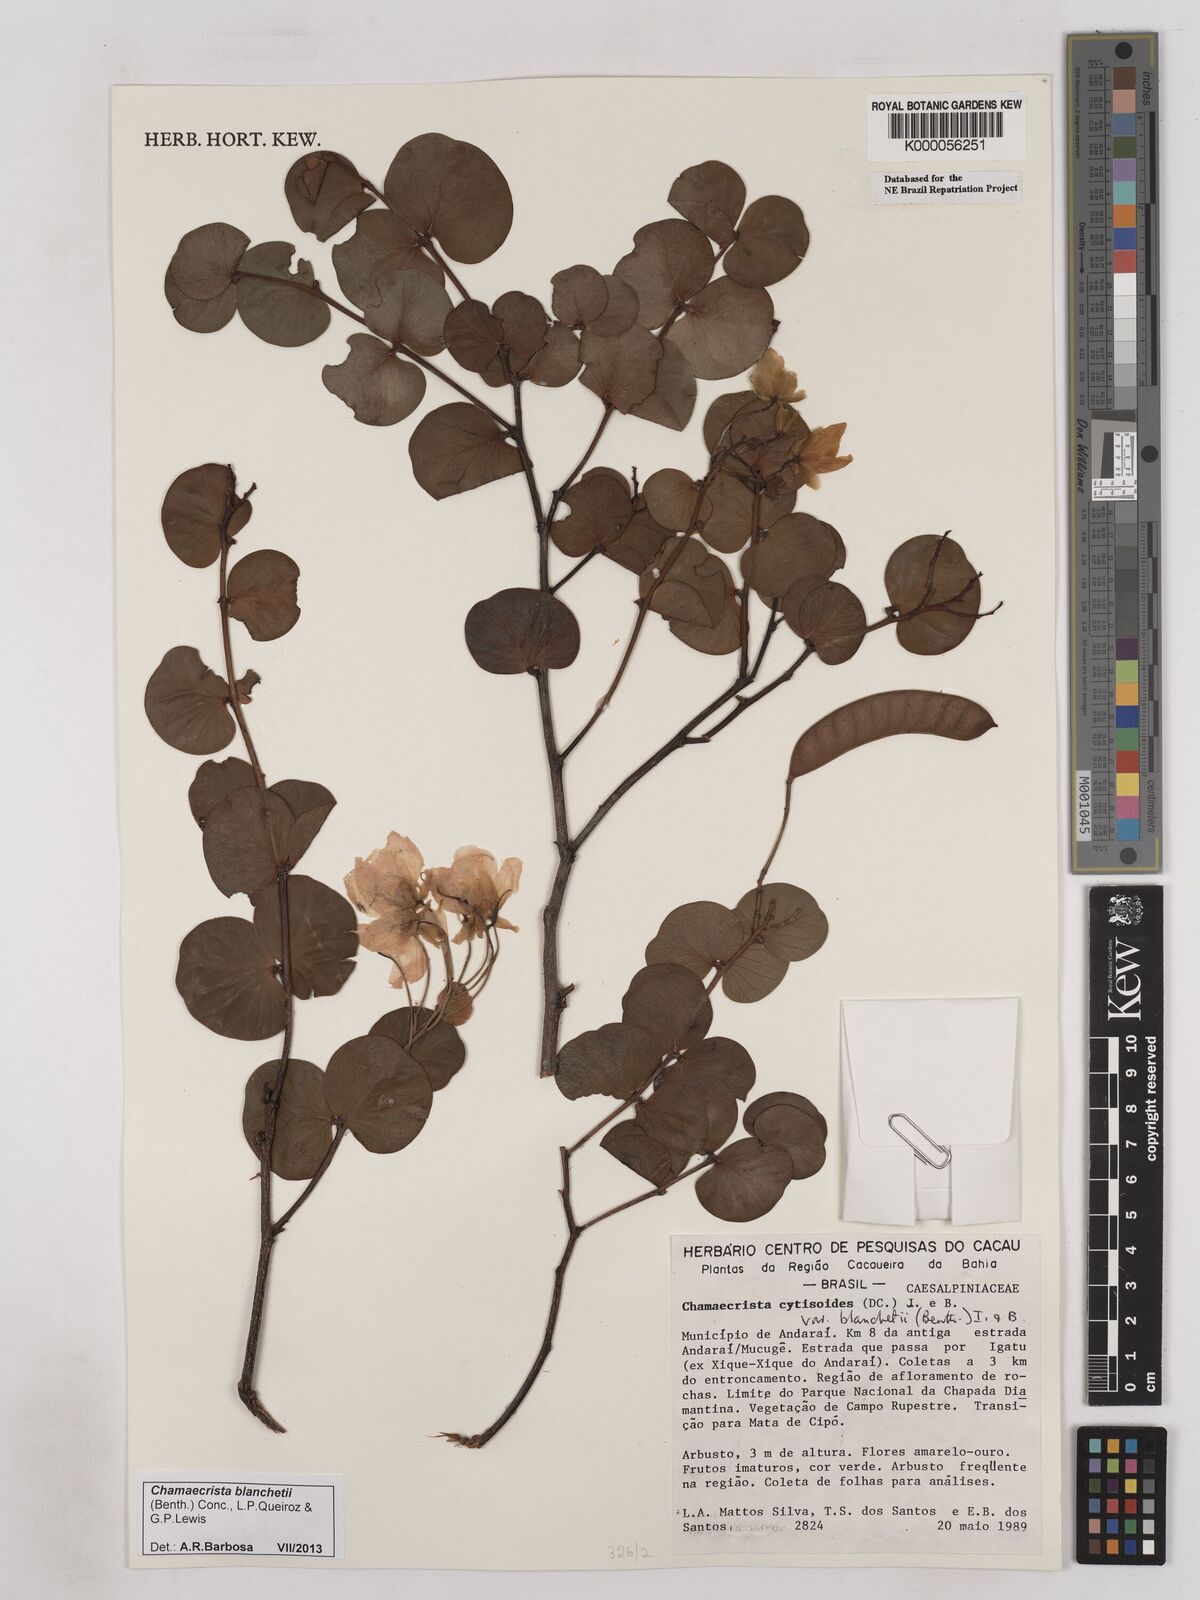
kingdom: Plantae
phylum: Tracheophyta
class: Magnoliopsida
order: Fabales
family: Fabaceae
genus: Chamaecrista
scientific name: Chamaecrista cytisoides
